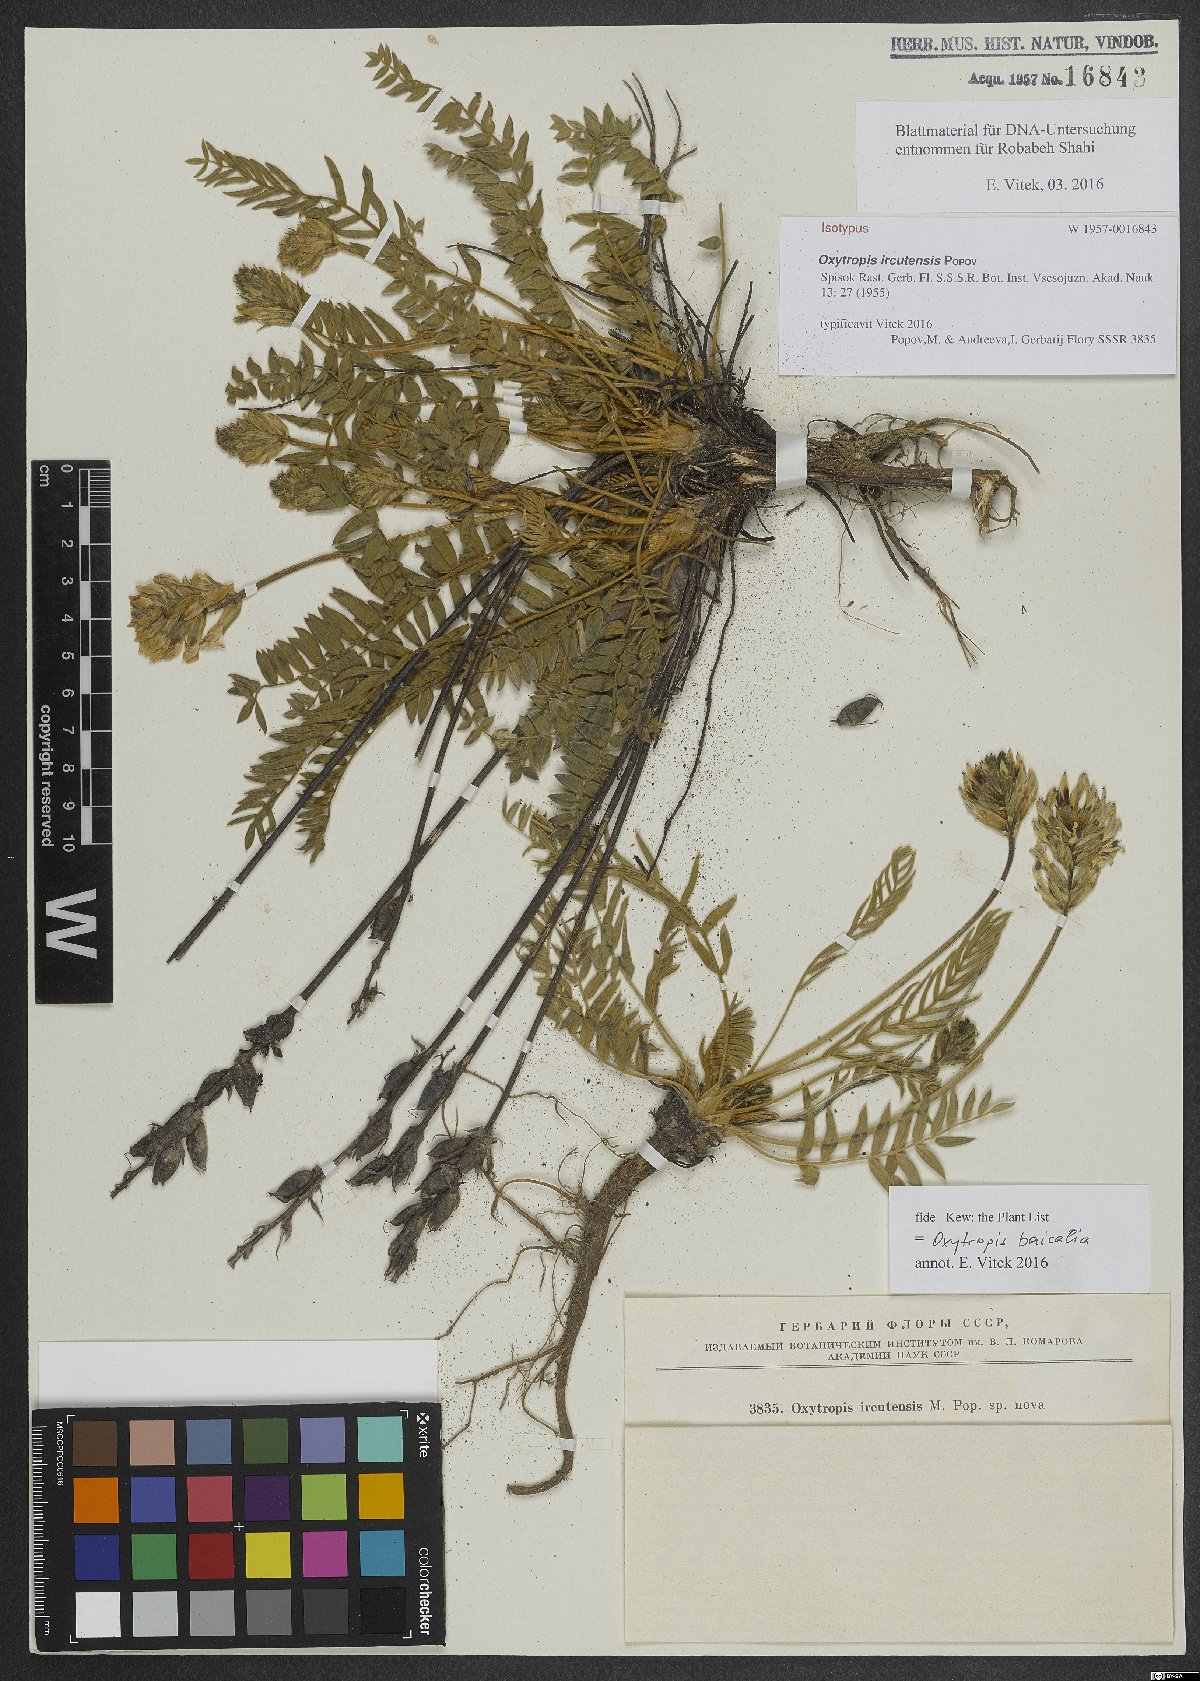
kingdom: Plantae
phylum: Tracheophyta
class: Magnoliopsida
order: Fabales
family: Fabaceae
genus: Oxytropis
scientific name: Oxytropis baicalia
